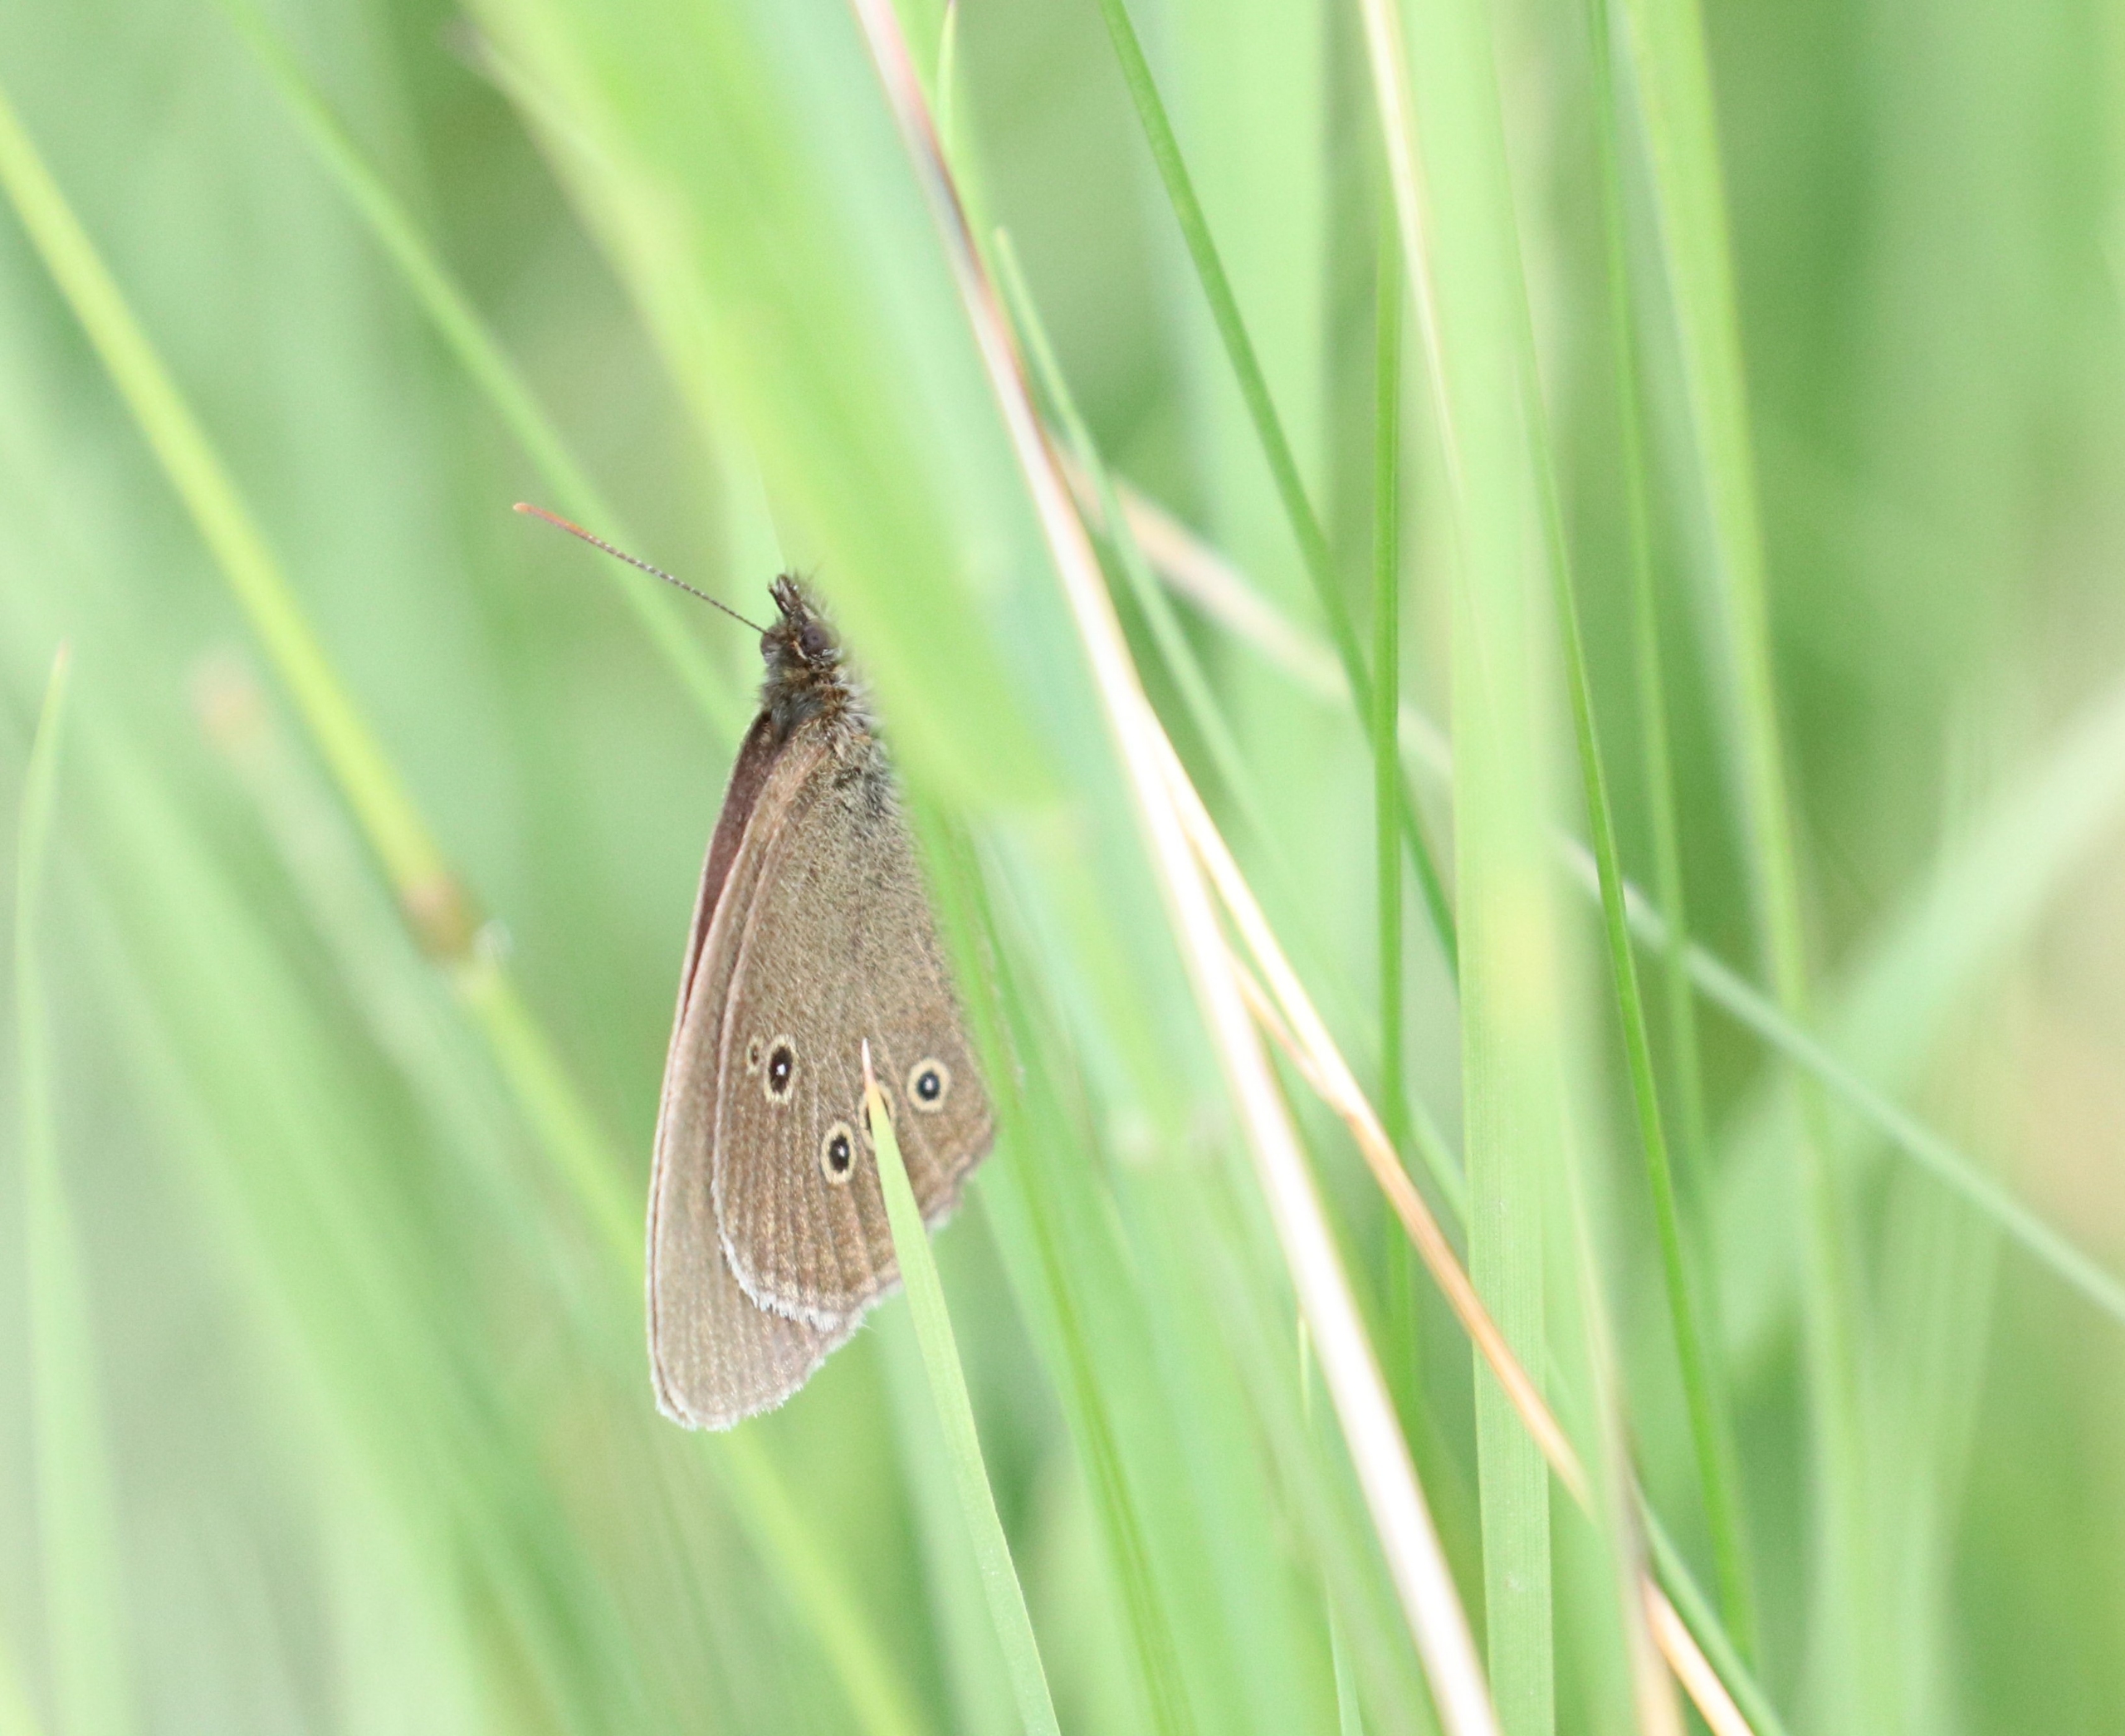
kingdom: Animalia
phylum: Arthropoda
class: Insecta
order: Lepidoptera
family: Nymphalidae
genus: Aphantopus
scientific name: Aphantopus hyperantus
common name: Engrandøje
